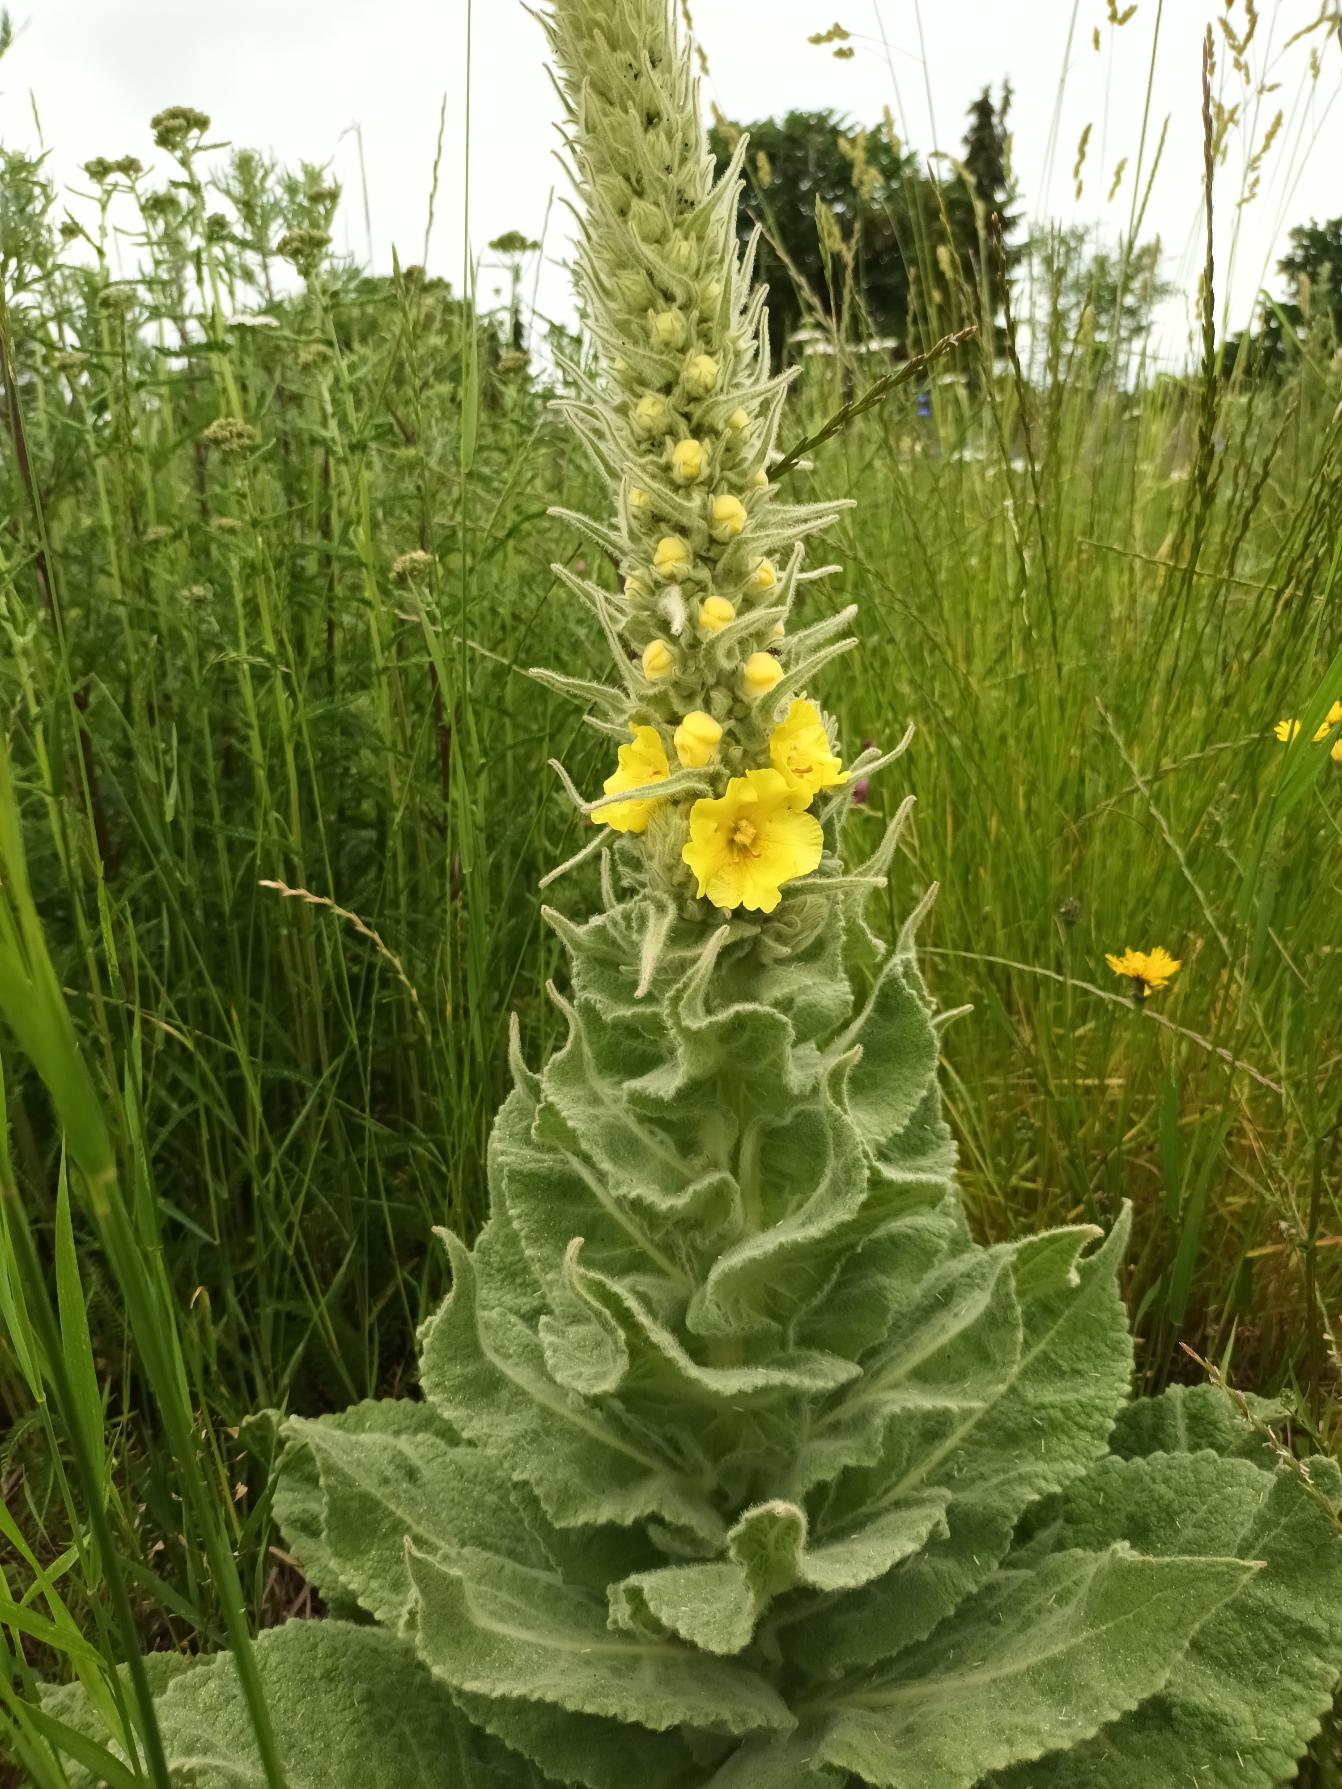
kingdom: Plantae
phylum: Tracheophyta
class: Magnoliopsida
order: Lamiales
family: Scrophulariaceae
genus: Verbascum
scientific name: Verbascum densiflorum
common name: Uldbladet kongelys
